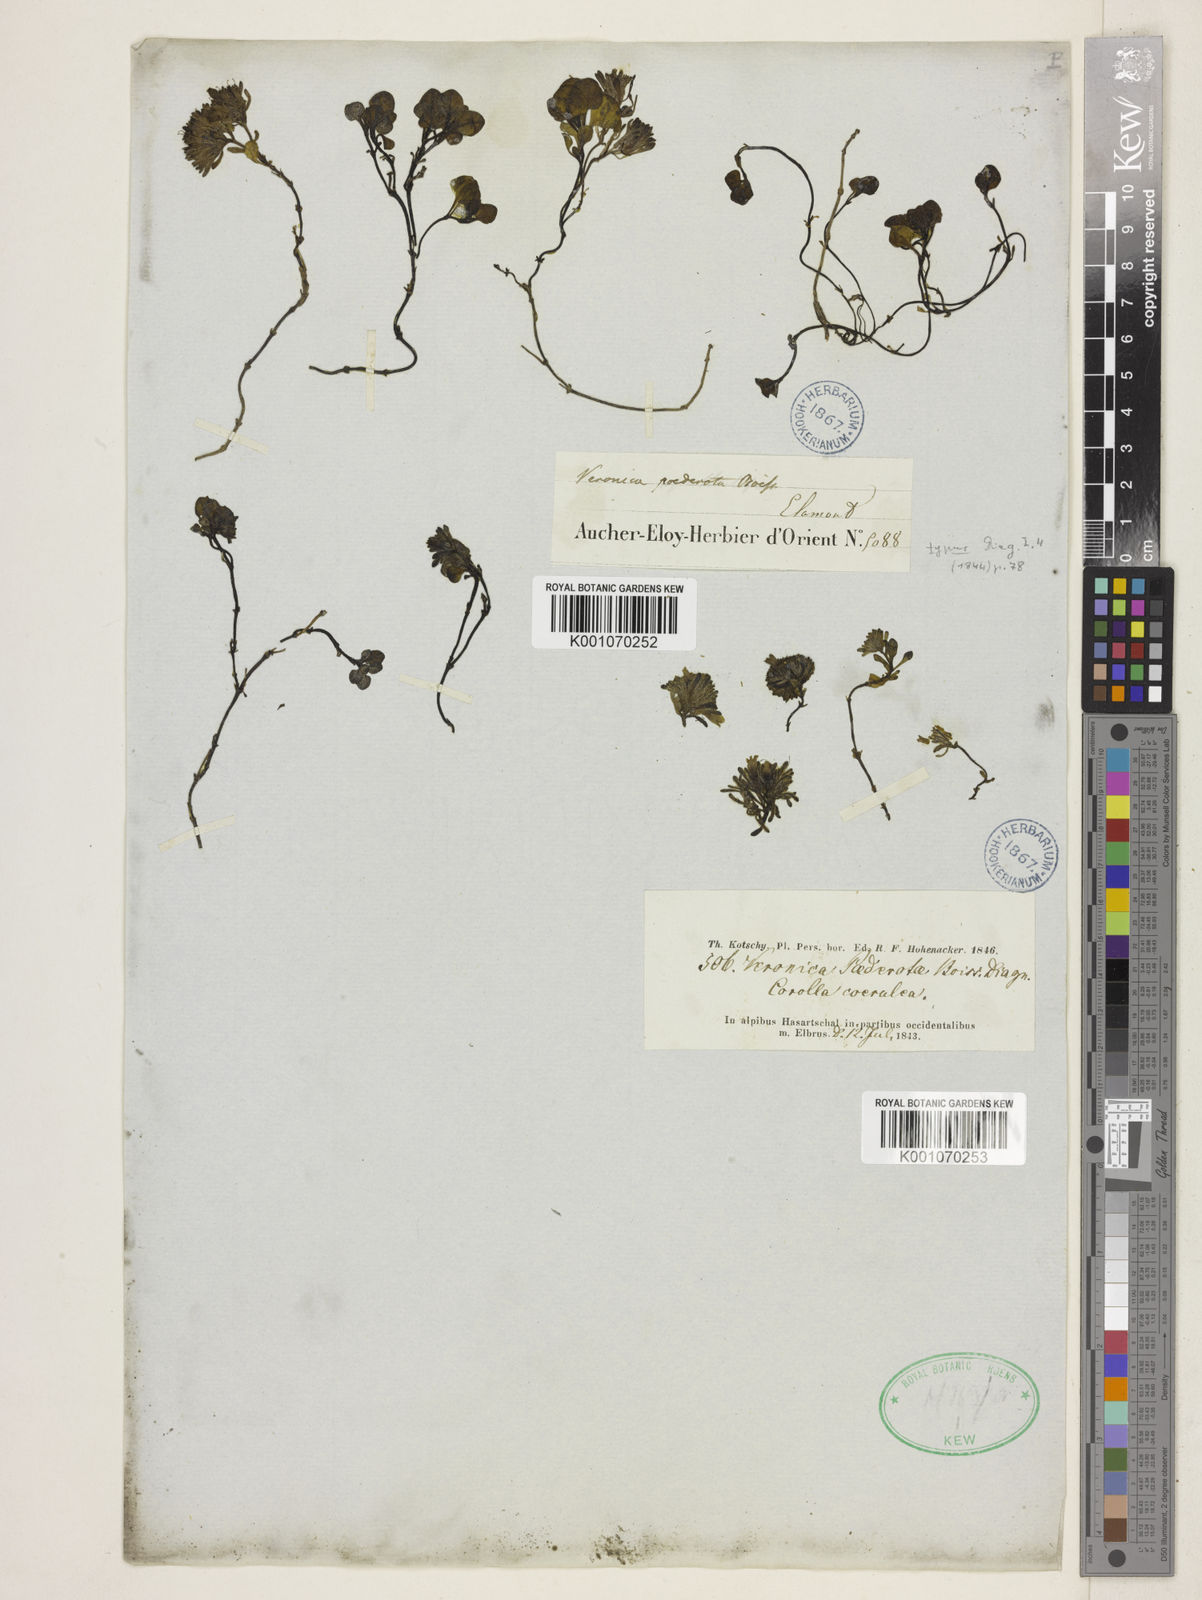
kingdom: Plantae
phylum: Tracheophyta
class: Magnoliopsida
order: Lamiales
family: Plantaginaceae
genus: Veronica
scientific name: Veronica paederotae
